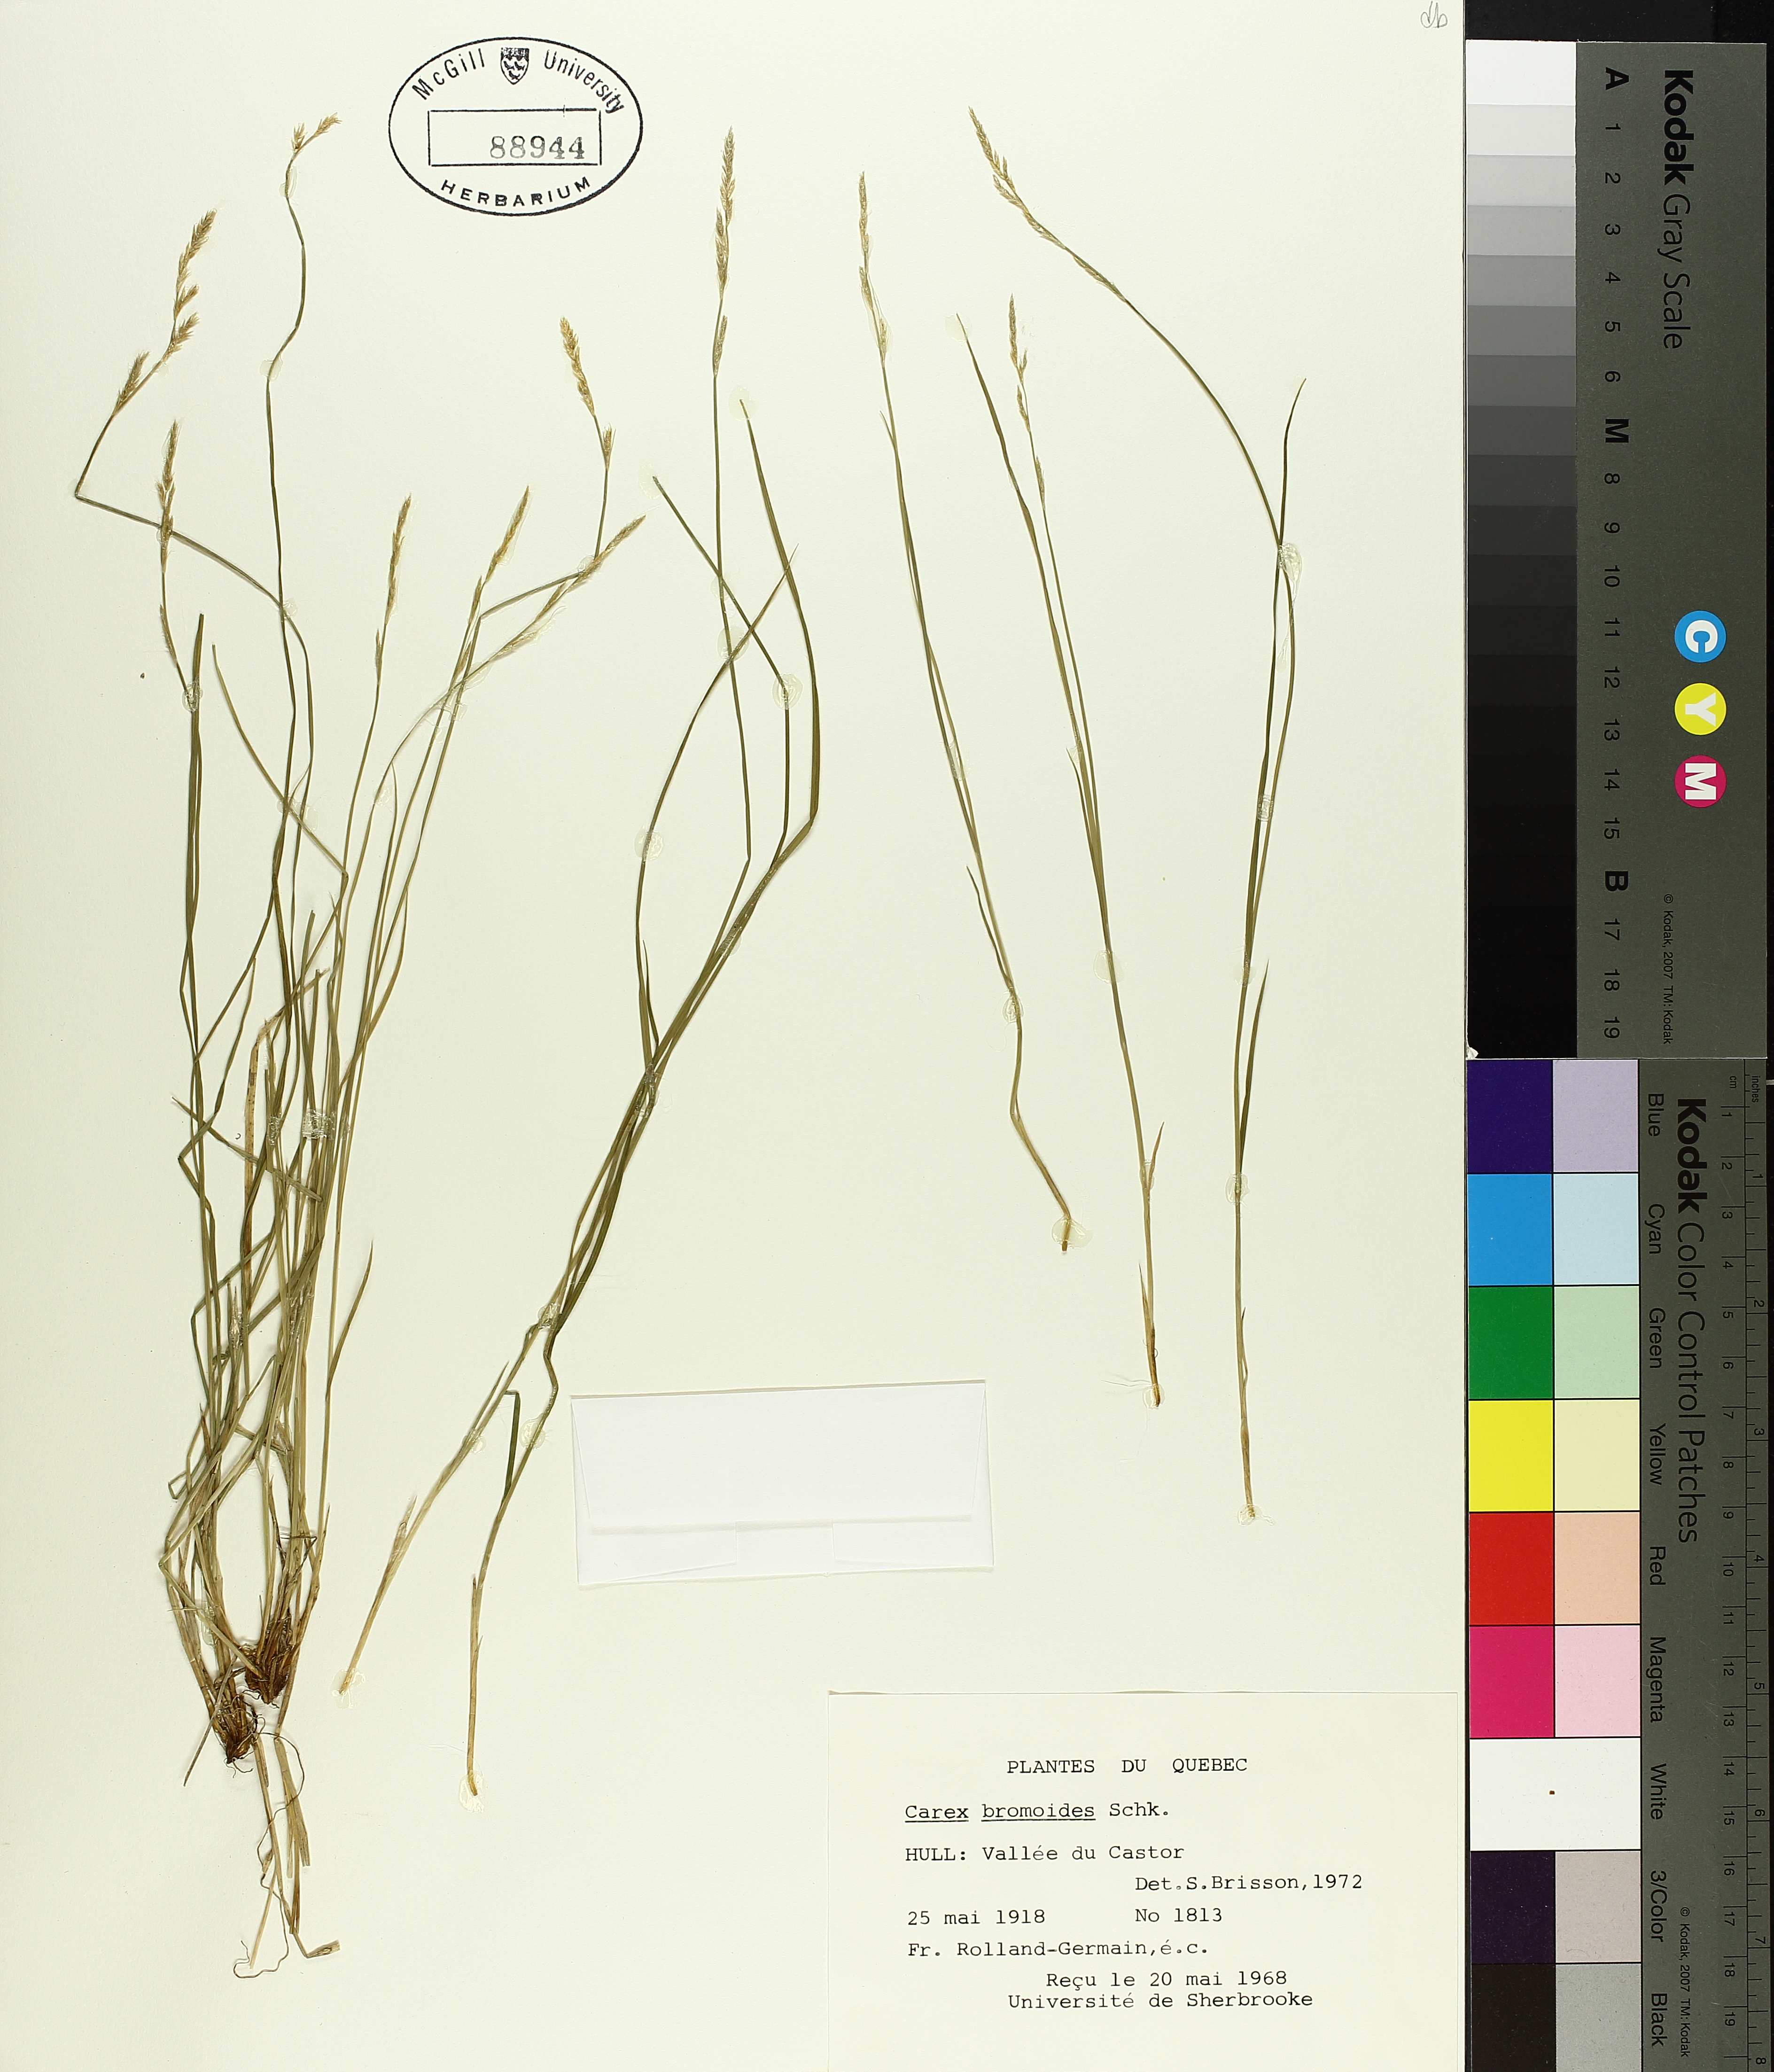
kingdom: Plantae
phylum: Tracheophyta
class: Liliopsida
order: Poales
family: Cyperaceae
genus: Carex
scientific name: Carex bromoides
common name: Brome hummock sedge
